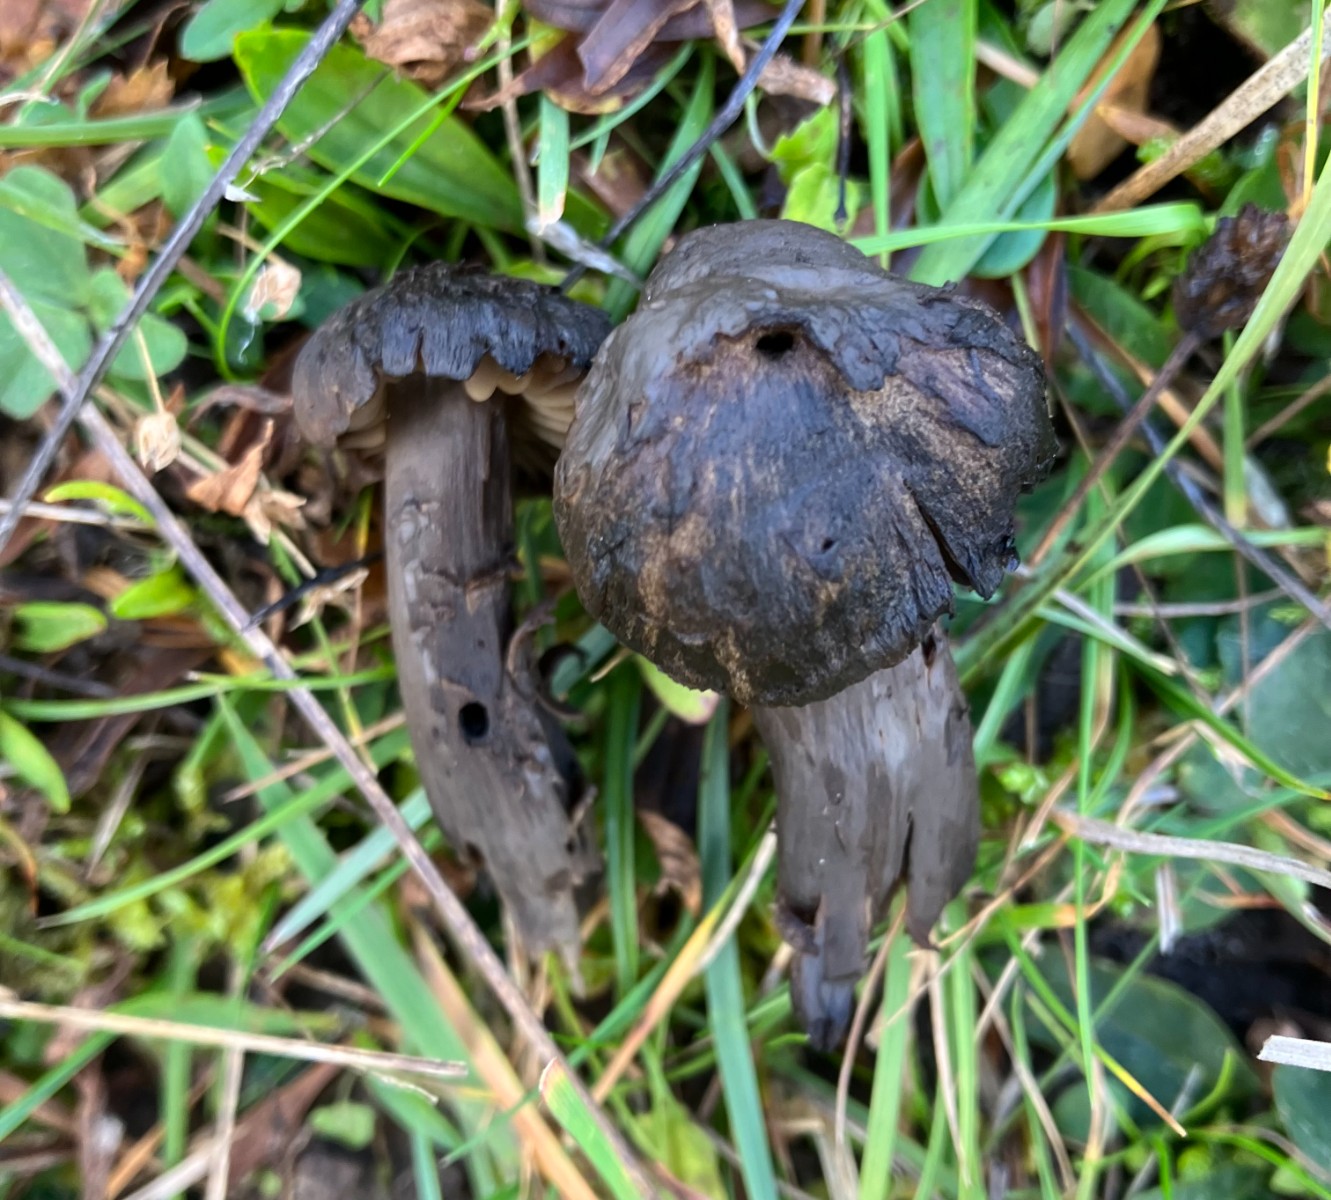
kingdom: Fungi
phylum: Basidiomycota
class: Agaricomycetes
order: Agaricales
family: Hygrophoraceae
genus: Neohygrocybe
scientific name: Neohygrocybe ovina
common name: rødmende vokshat
